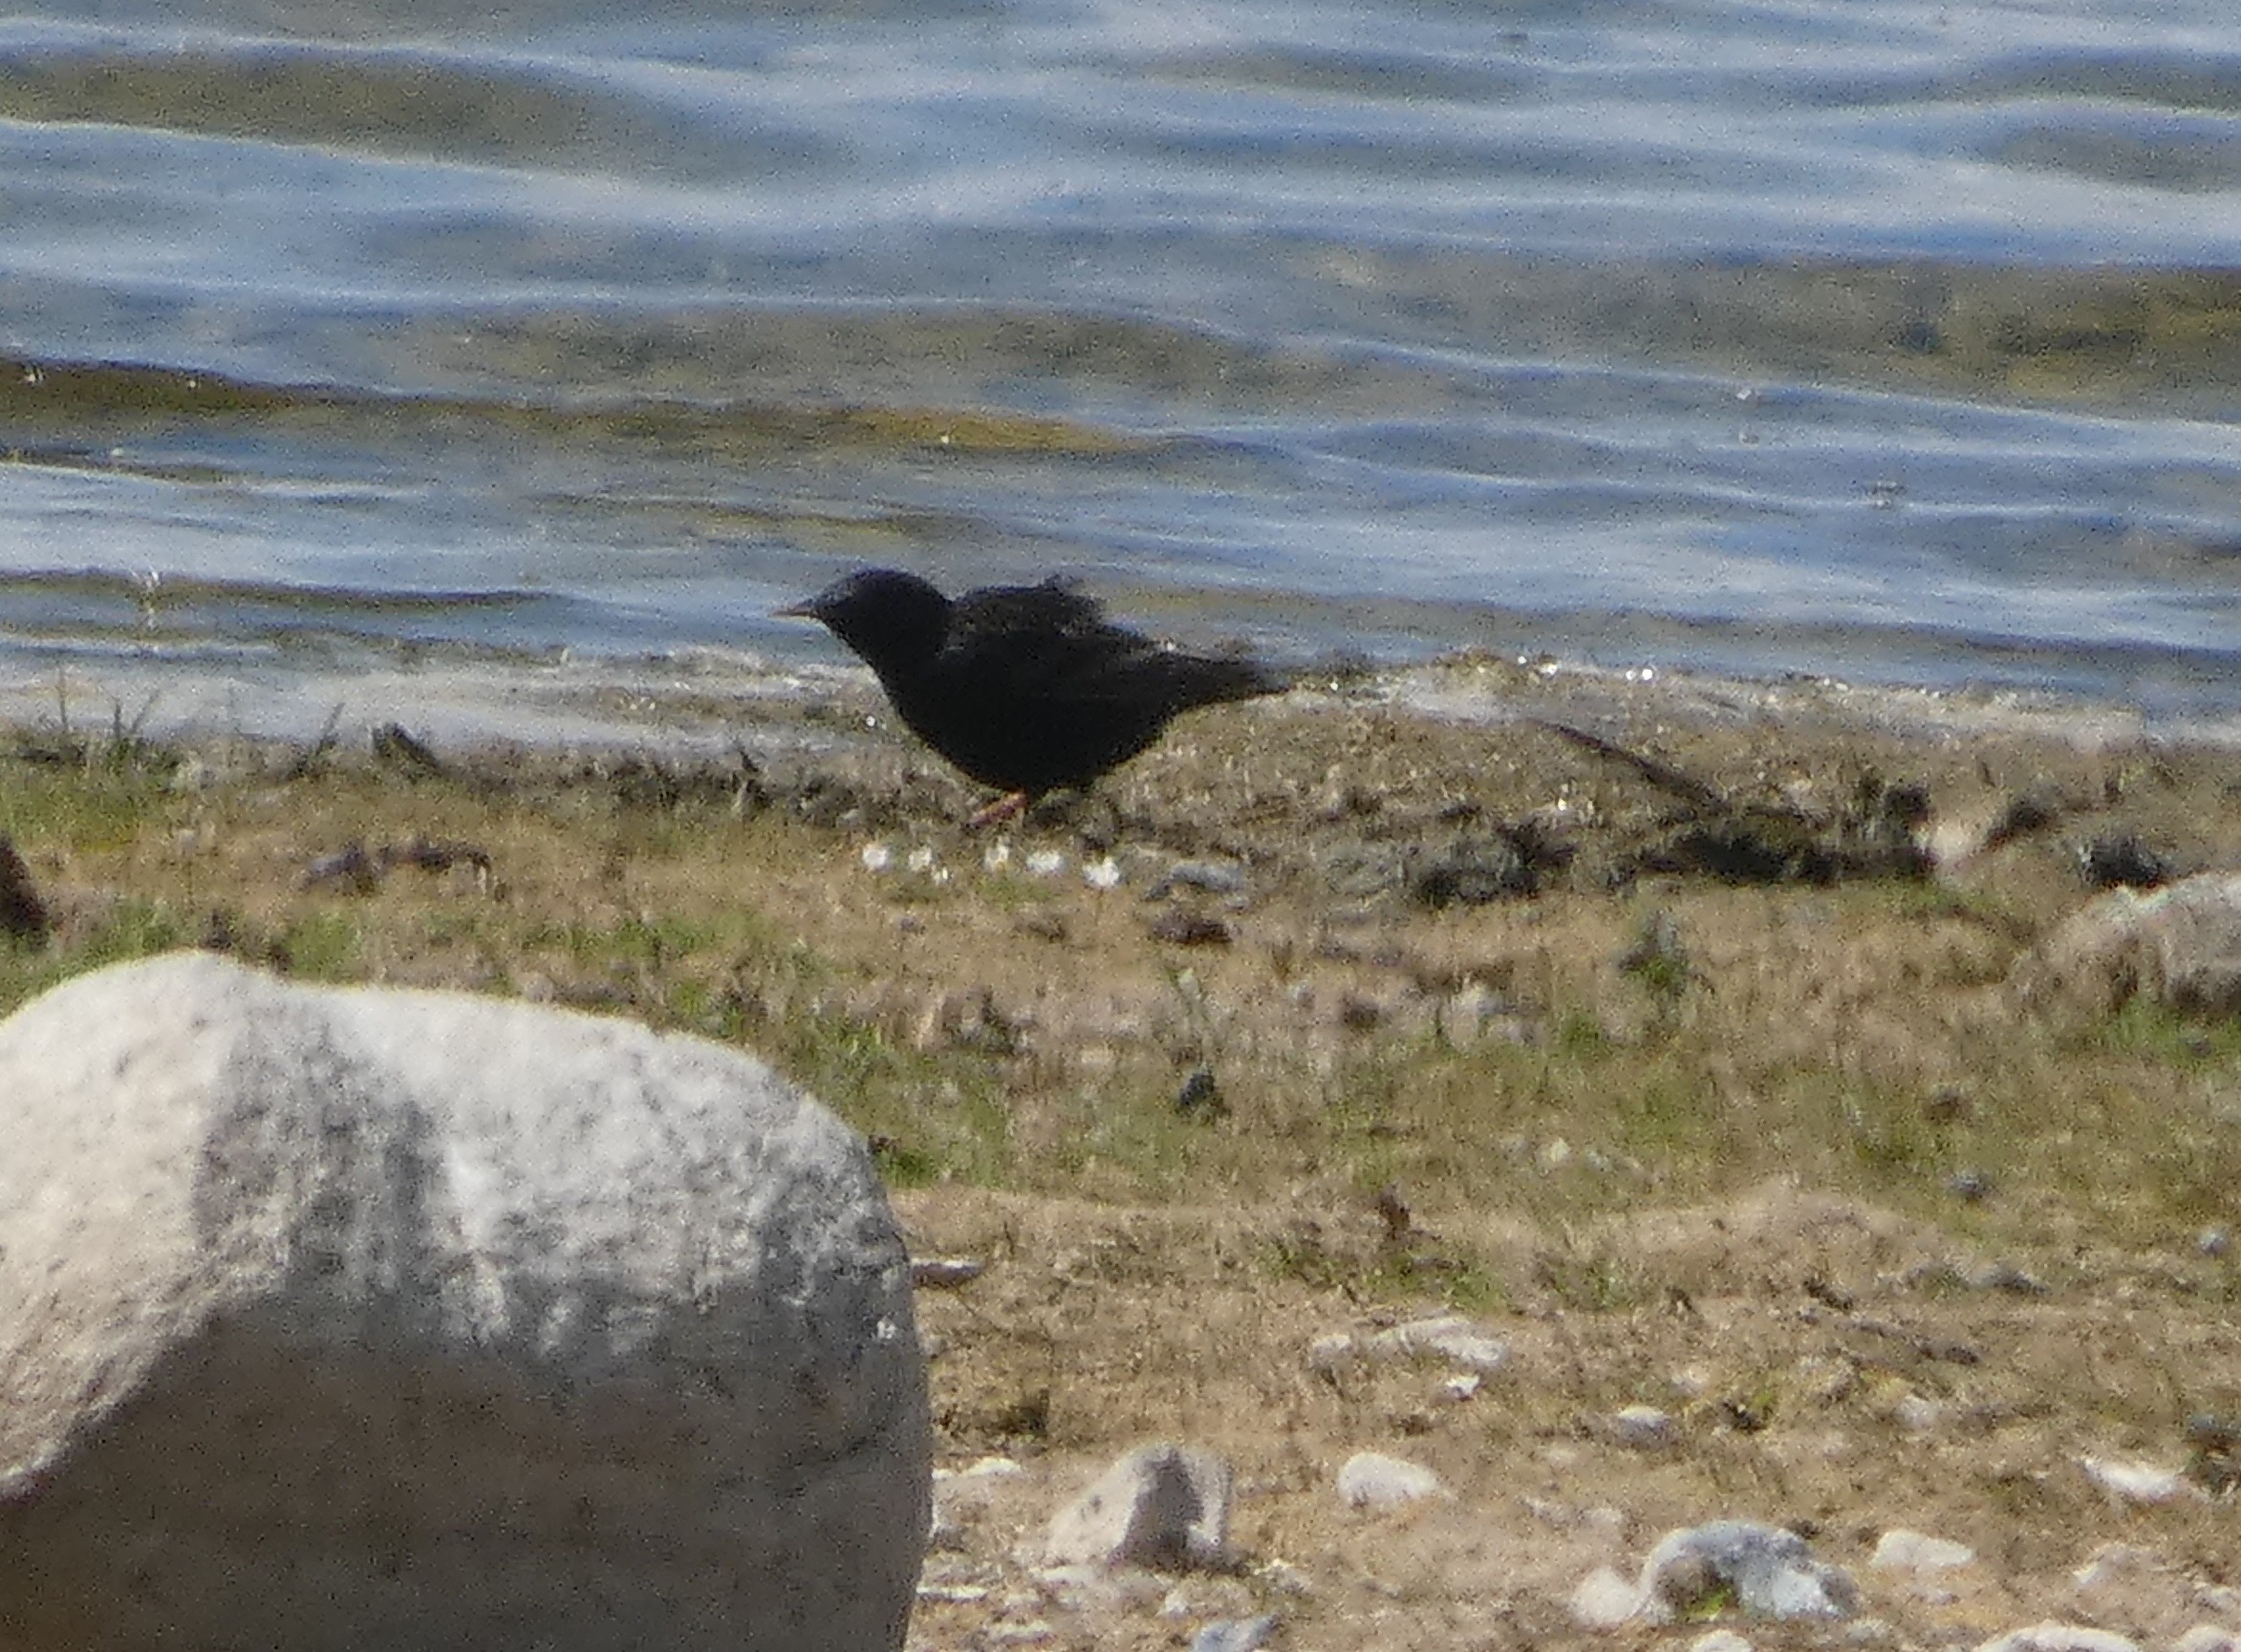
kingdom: Animalia
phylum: Chordata
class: Aves
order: Passeriformes
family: Sturnidae
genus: Sturnus
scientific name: Sturnus vulgaris
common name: Stær
